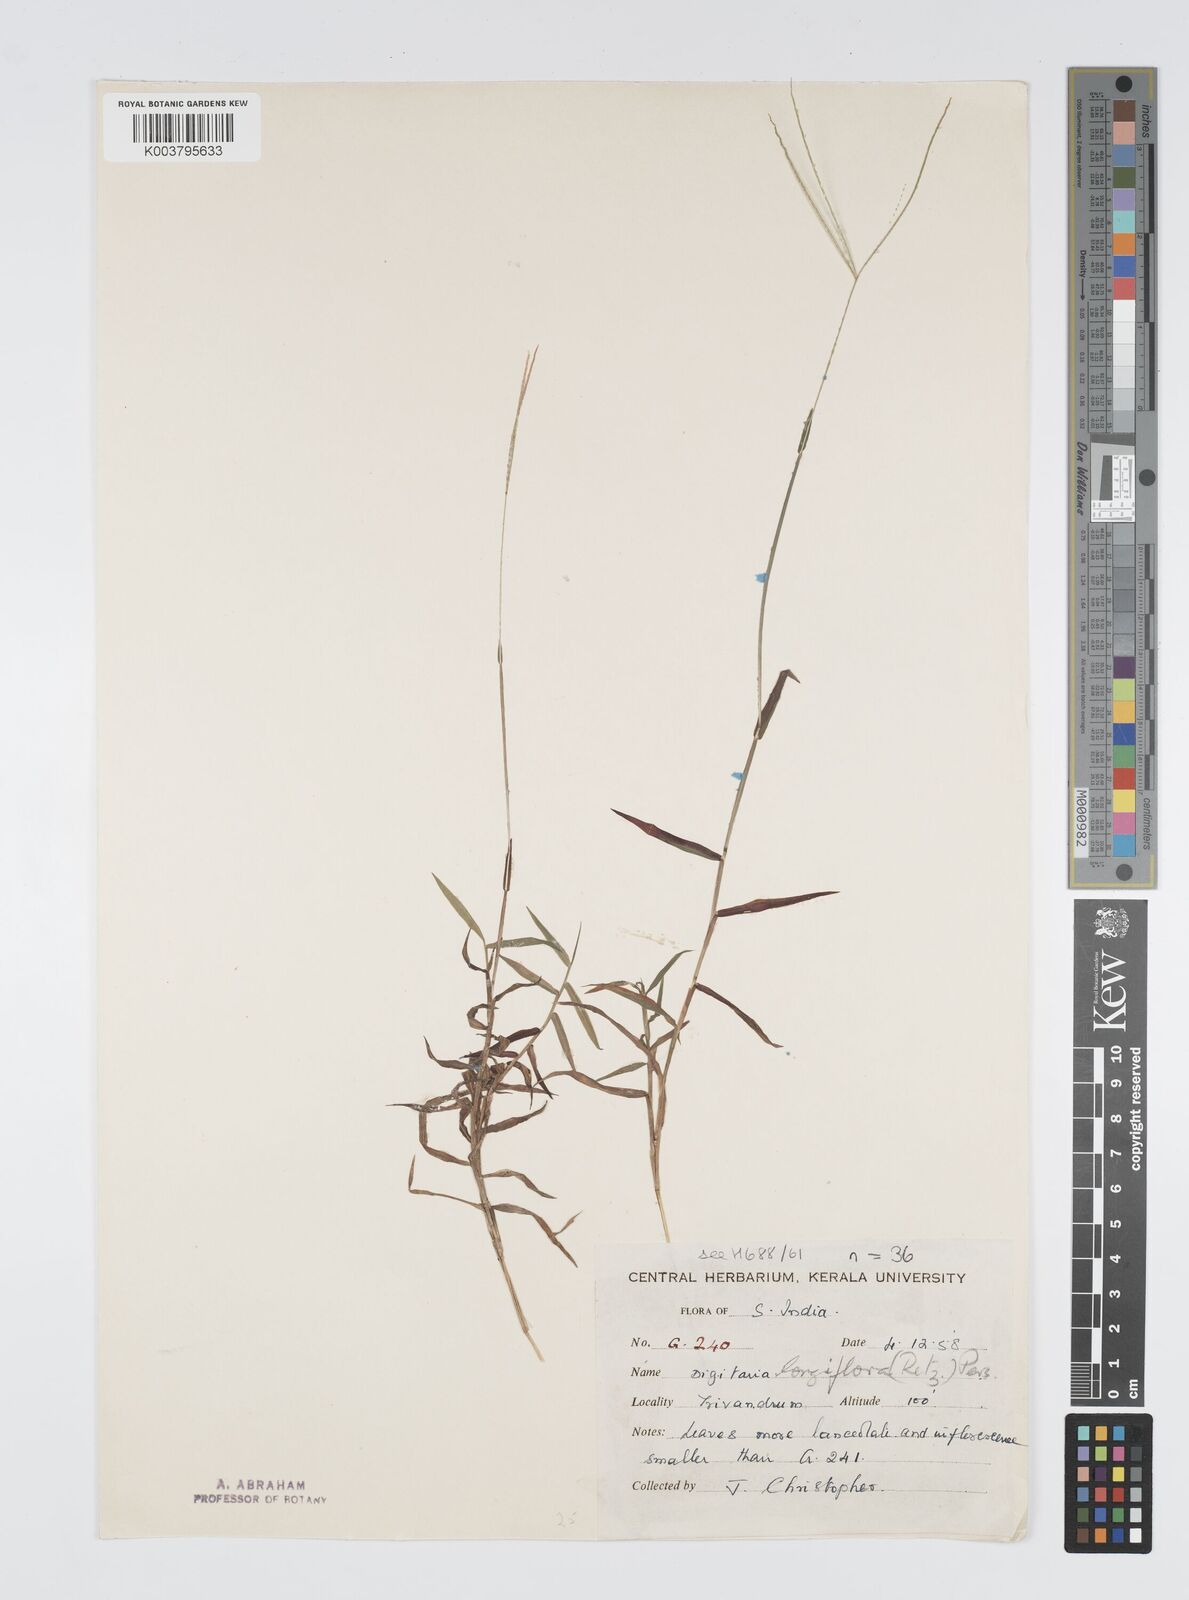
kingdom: Plantae
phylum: Tracheophyta
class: Liliopsida
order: Poales
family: Poaceae
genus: Digitaria
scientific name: Digitaria longiflora
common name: Wire crabgrass
